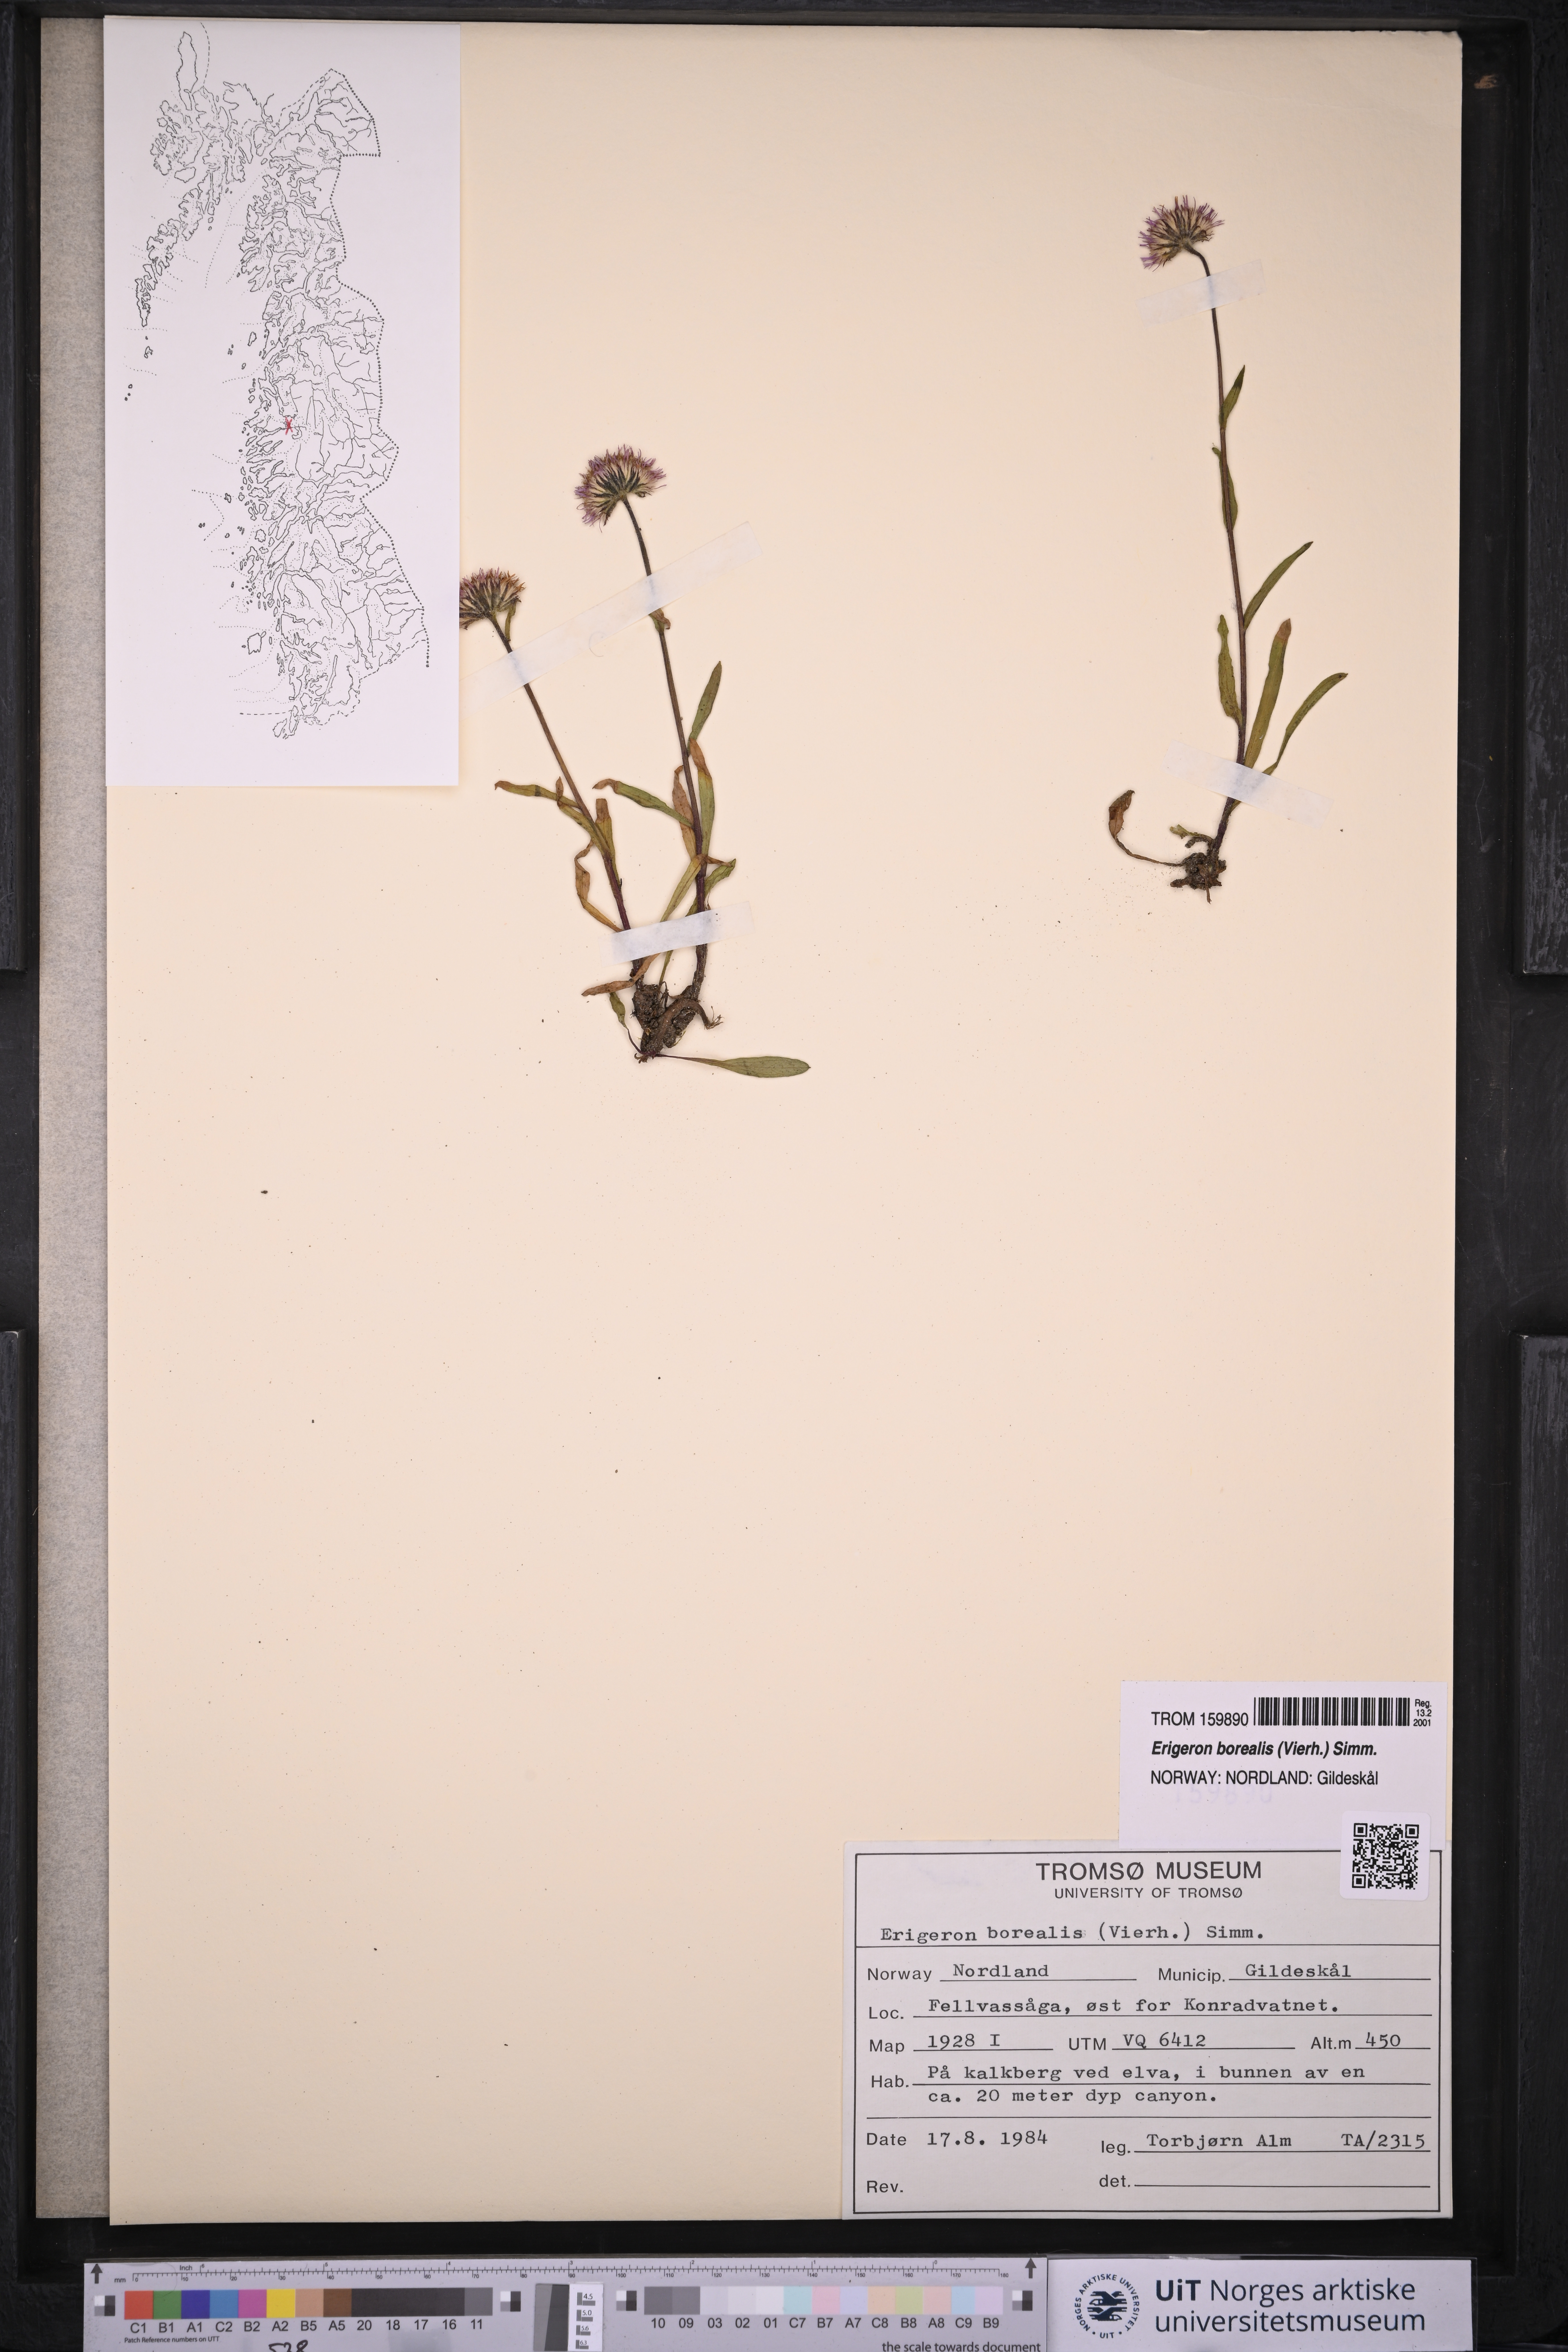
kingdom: Plantae
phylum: Tracheophyta
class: Magnoliopsida
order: Asterales
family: Asteraceae
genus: Erigeron
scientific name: Erigeron borealis
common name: Alpine fleabane
